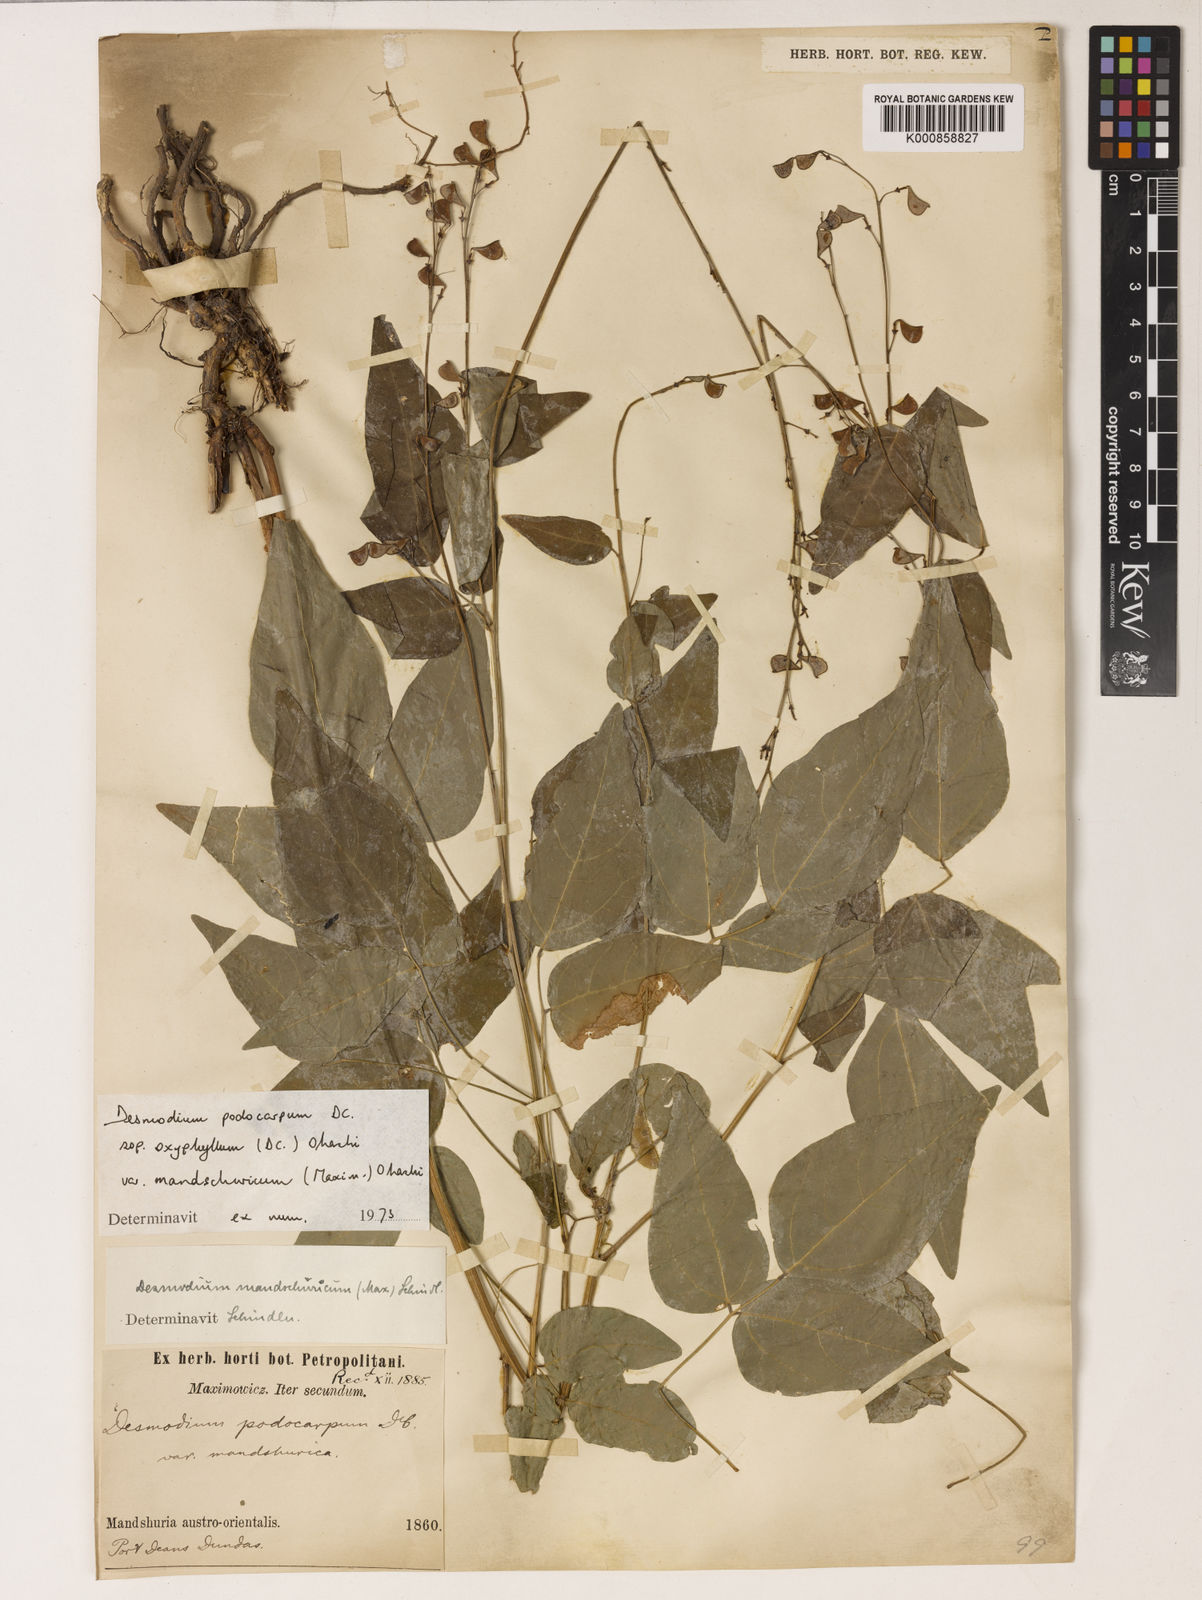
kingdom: Plantae
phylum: Tracheophyta
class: Magnoliopsida
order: Fabales
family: Fabaceae
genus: Hylodesmum
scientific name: Hylodesmum podocarpum
